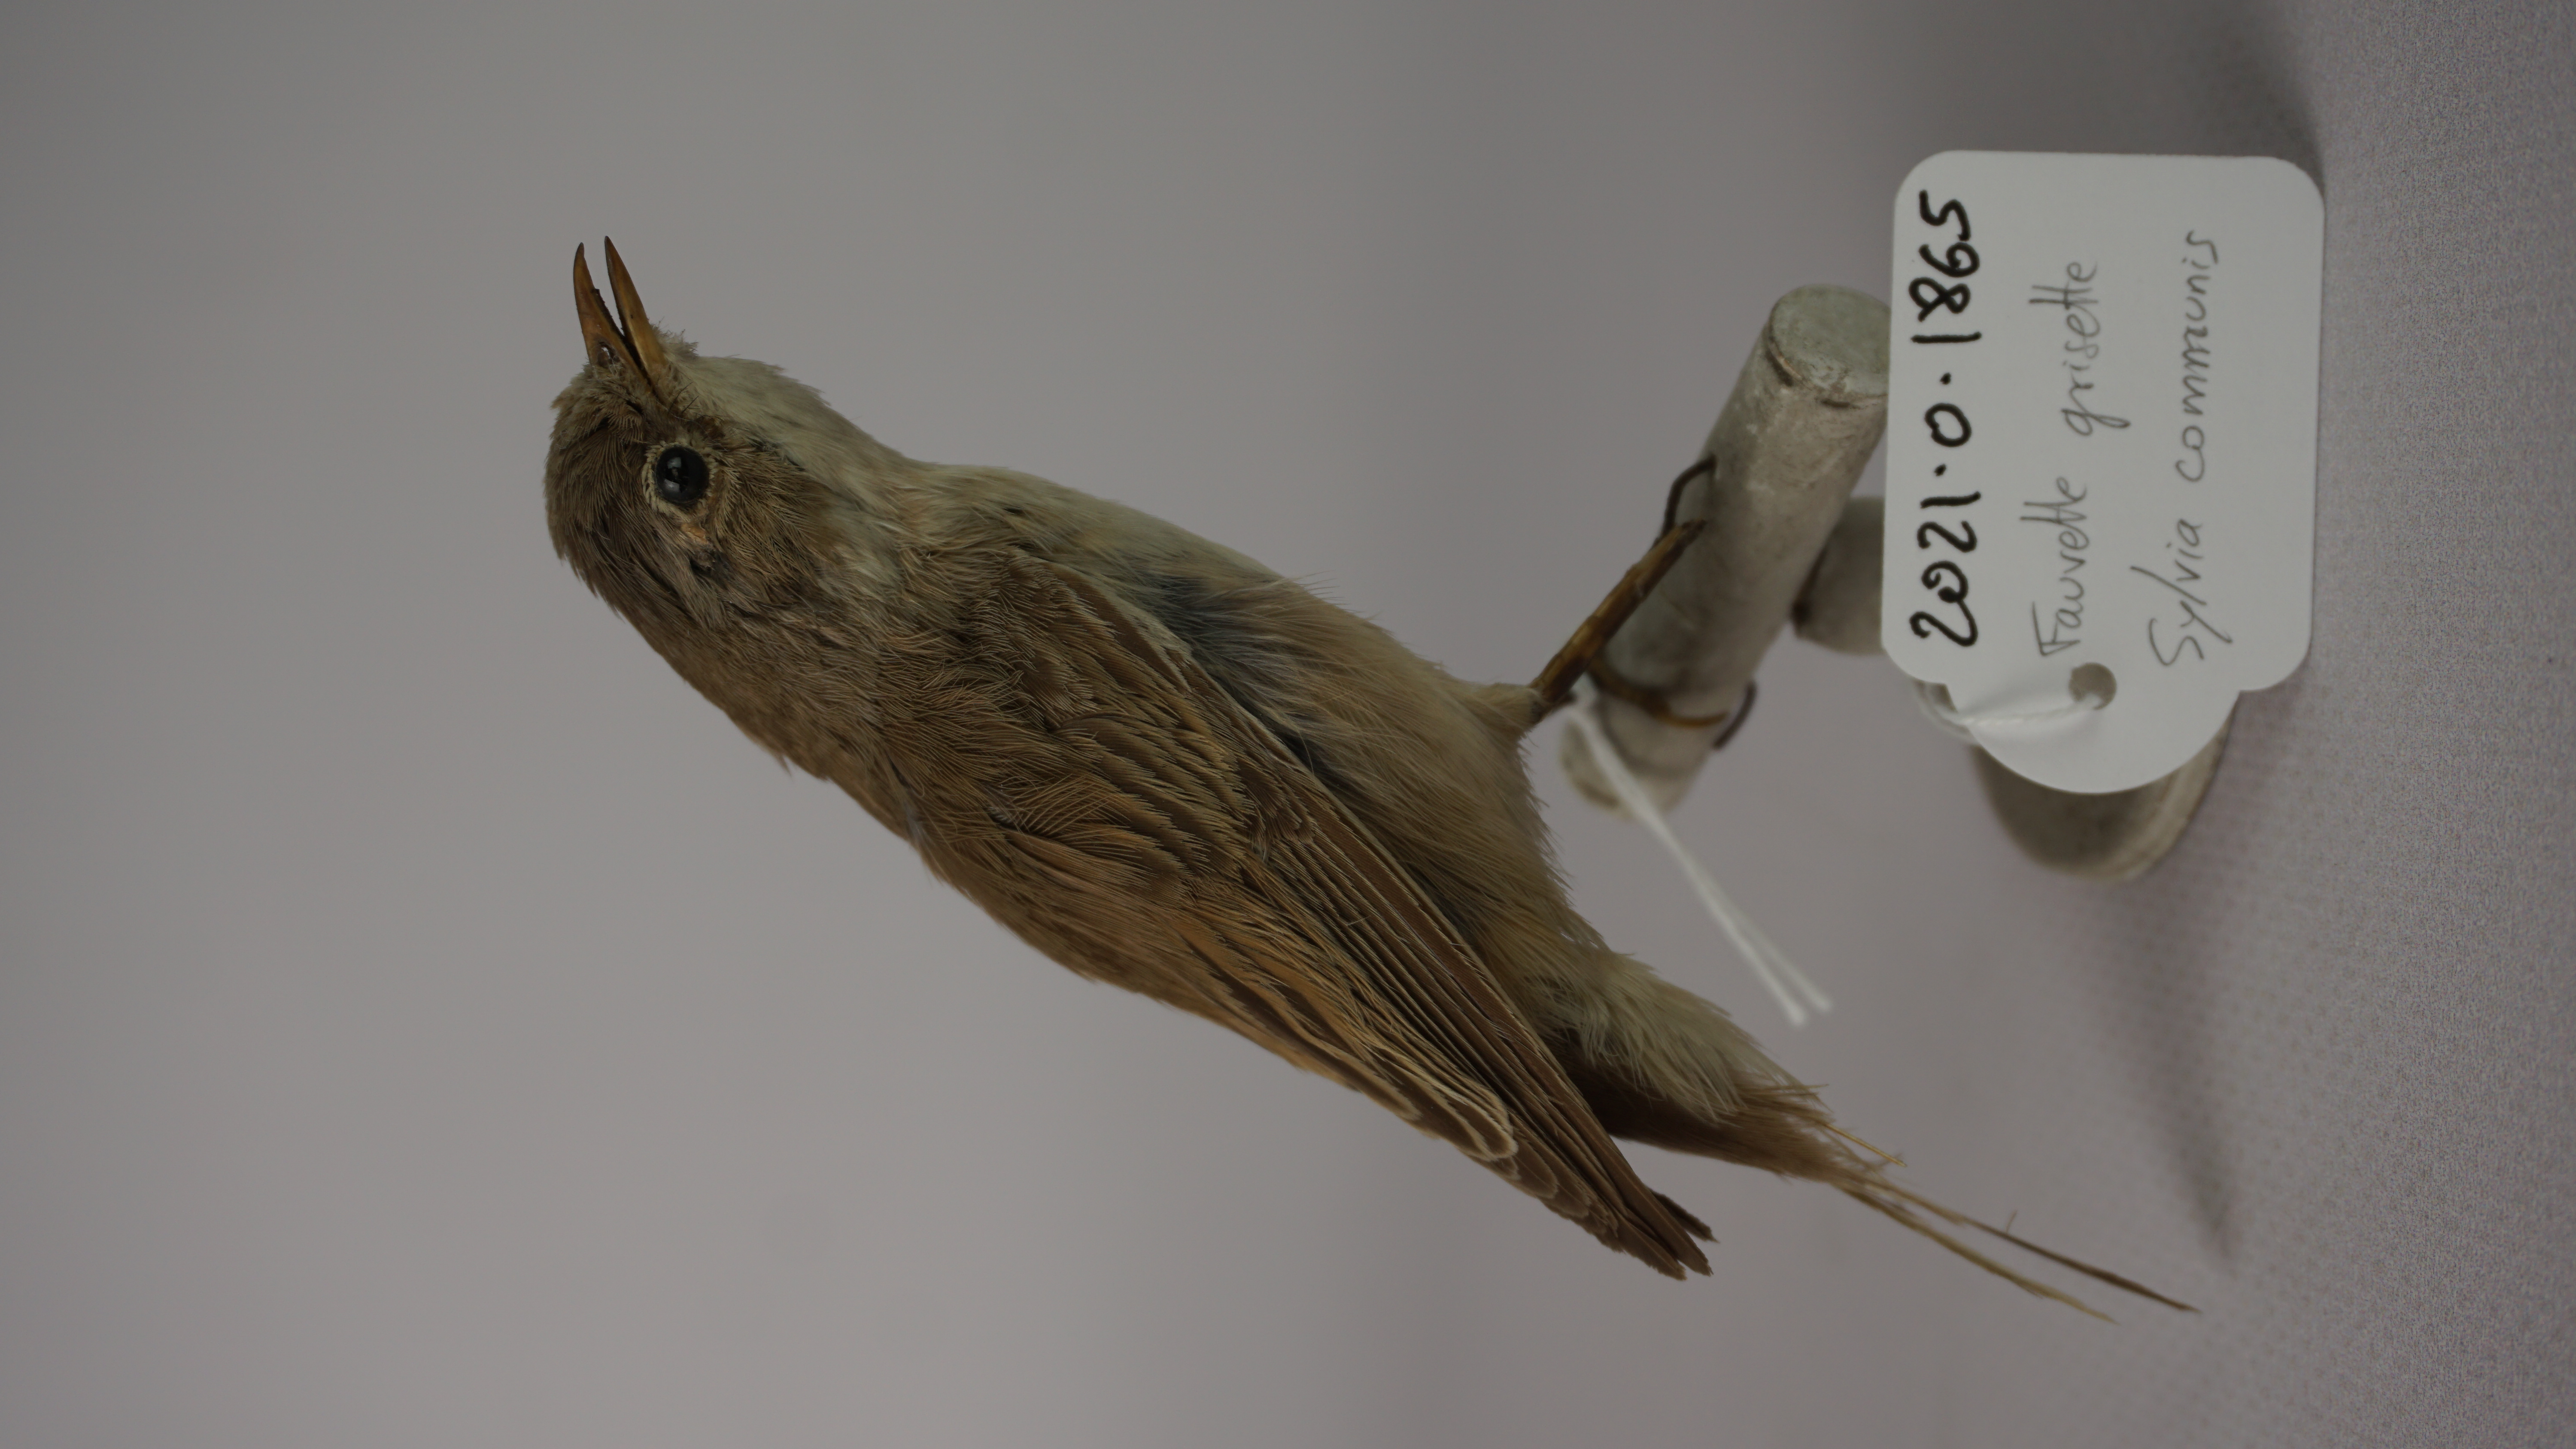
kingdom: Animalia
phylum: Chordata
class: Aves
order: Passeriformes
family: Sylviidae
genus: Sylvia
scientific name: Sylvia communis
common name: Common whitethroat
